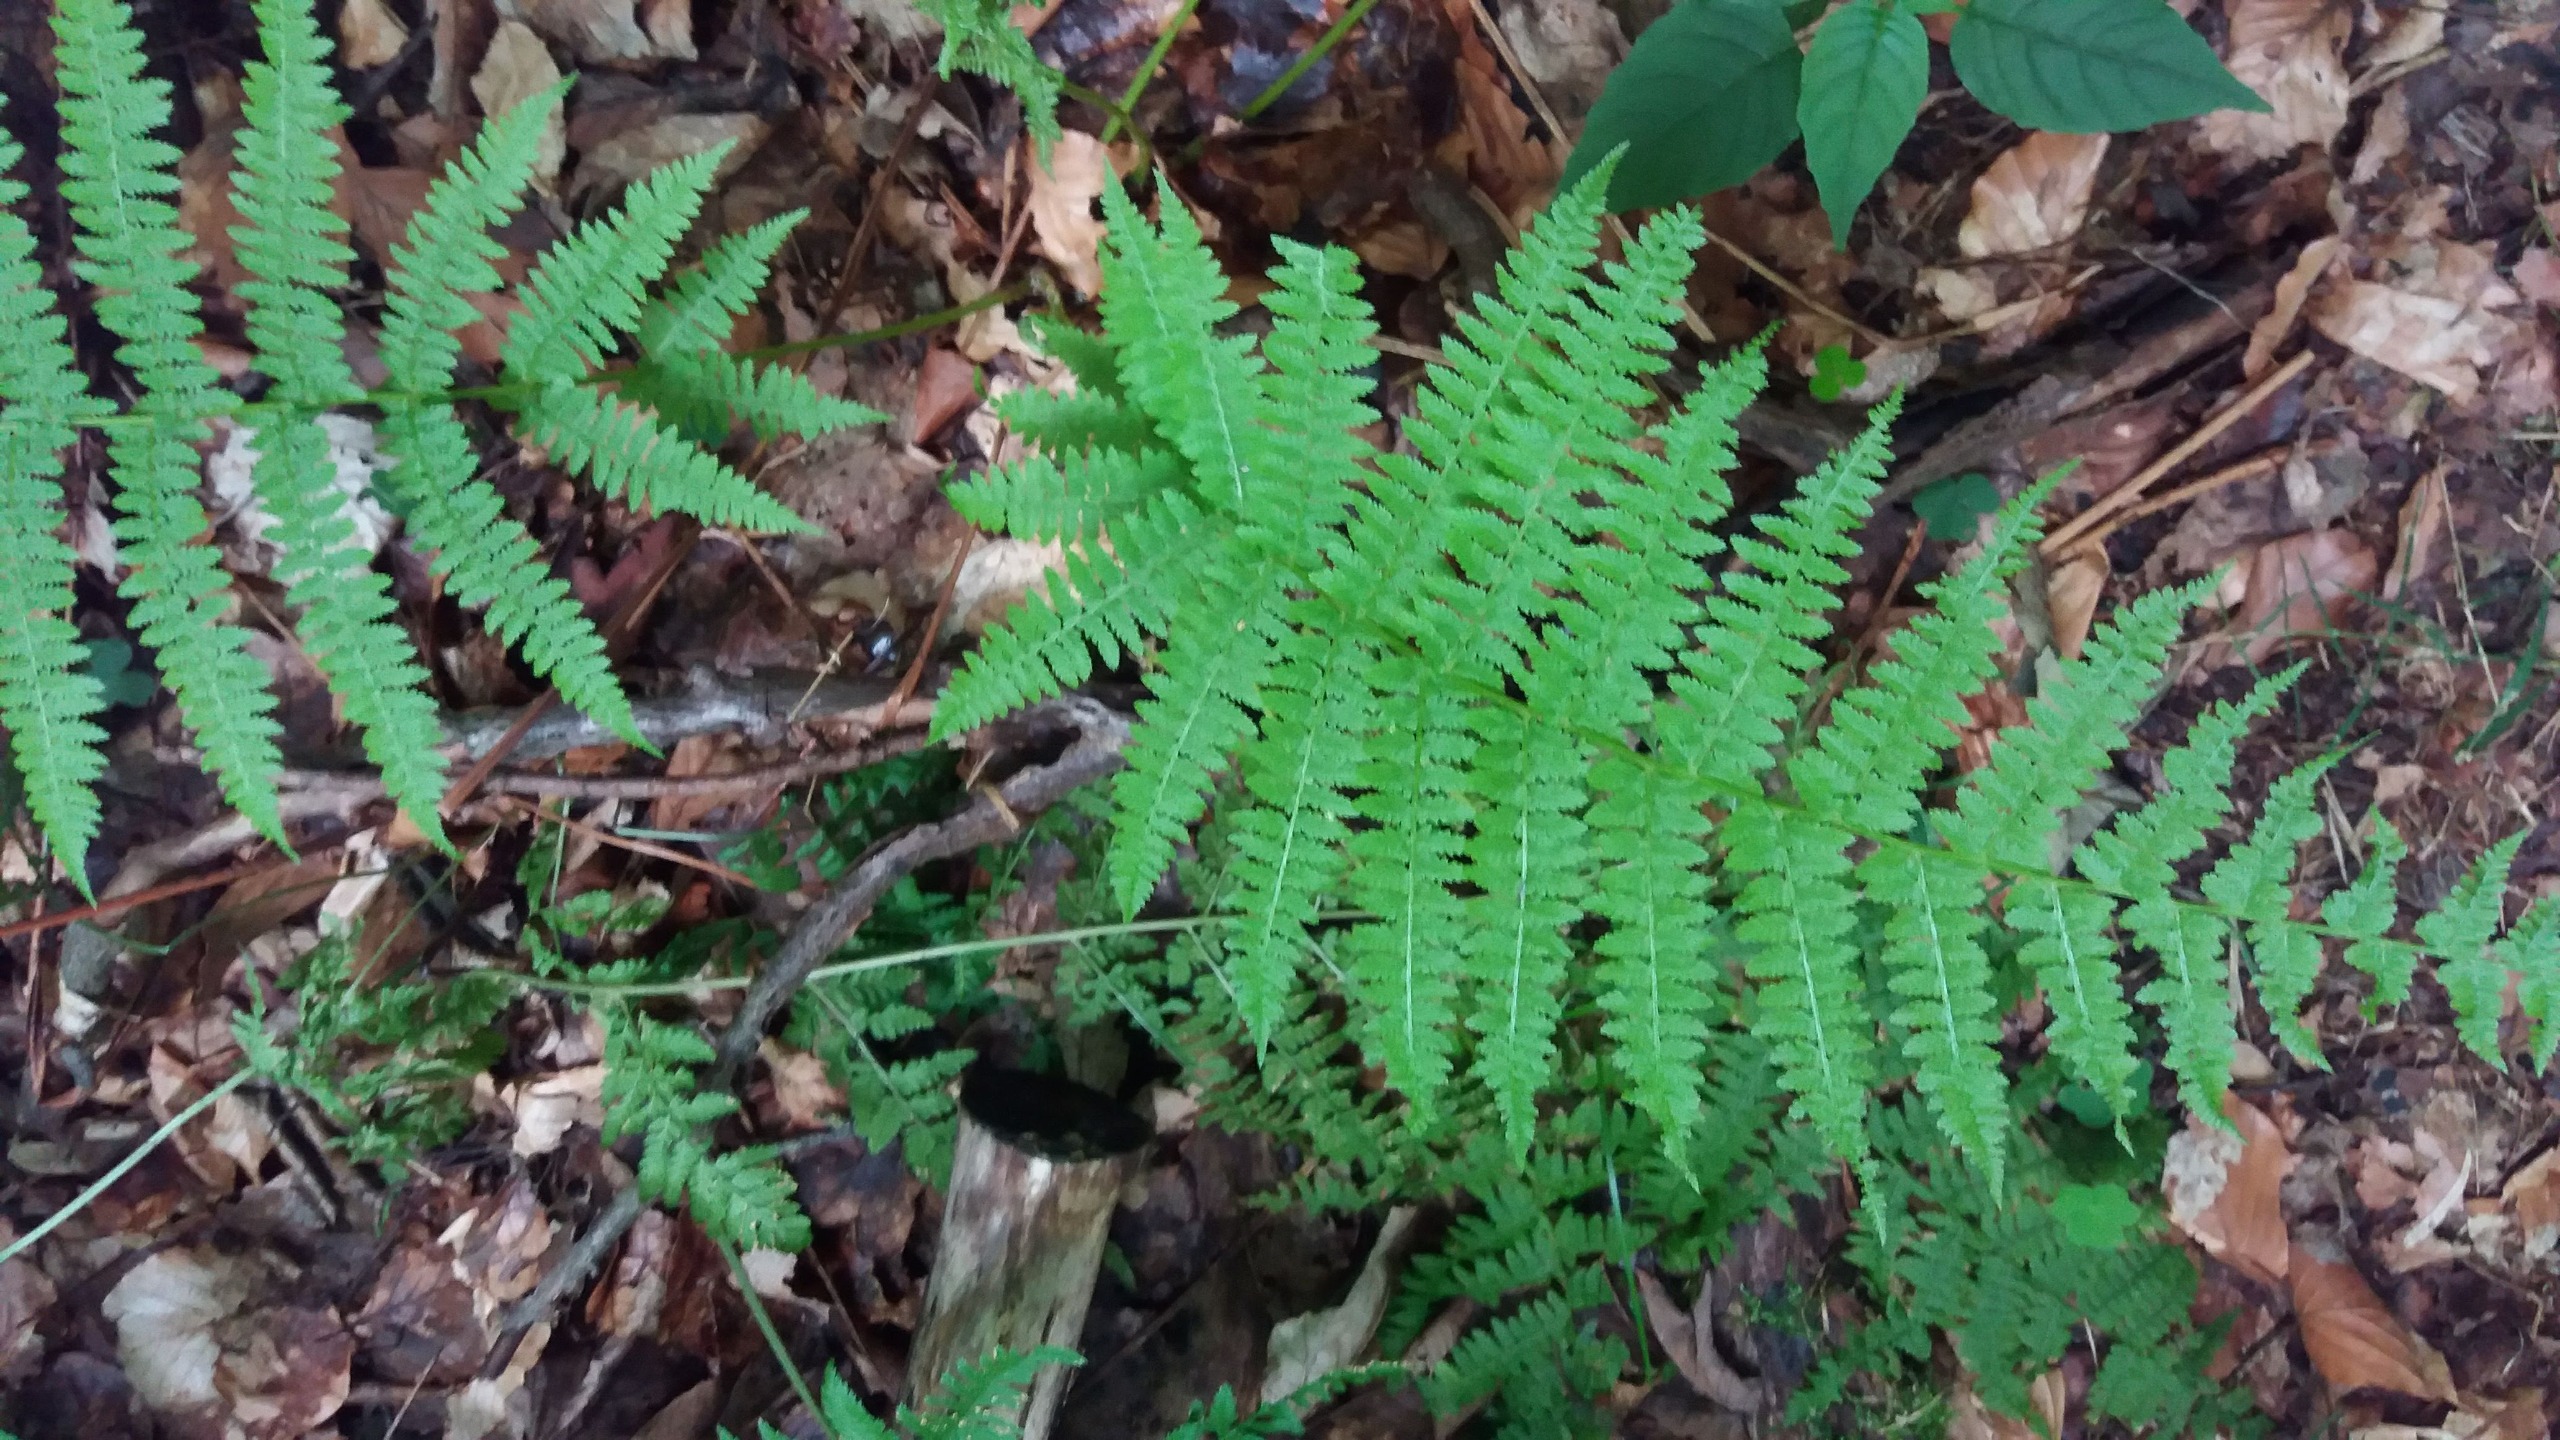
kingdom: Plantae
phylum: Tracheophyta
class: Polypodiopsida
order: Polypodiales
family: Athyriaceae
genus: Athyrium
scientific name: Athyrium filix-femina
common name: Fjerbregne
